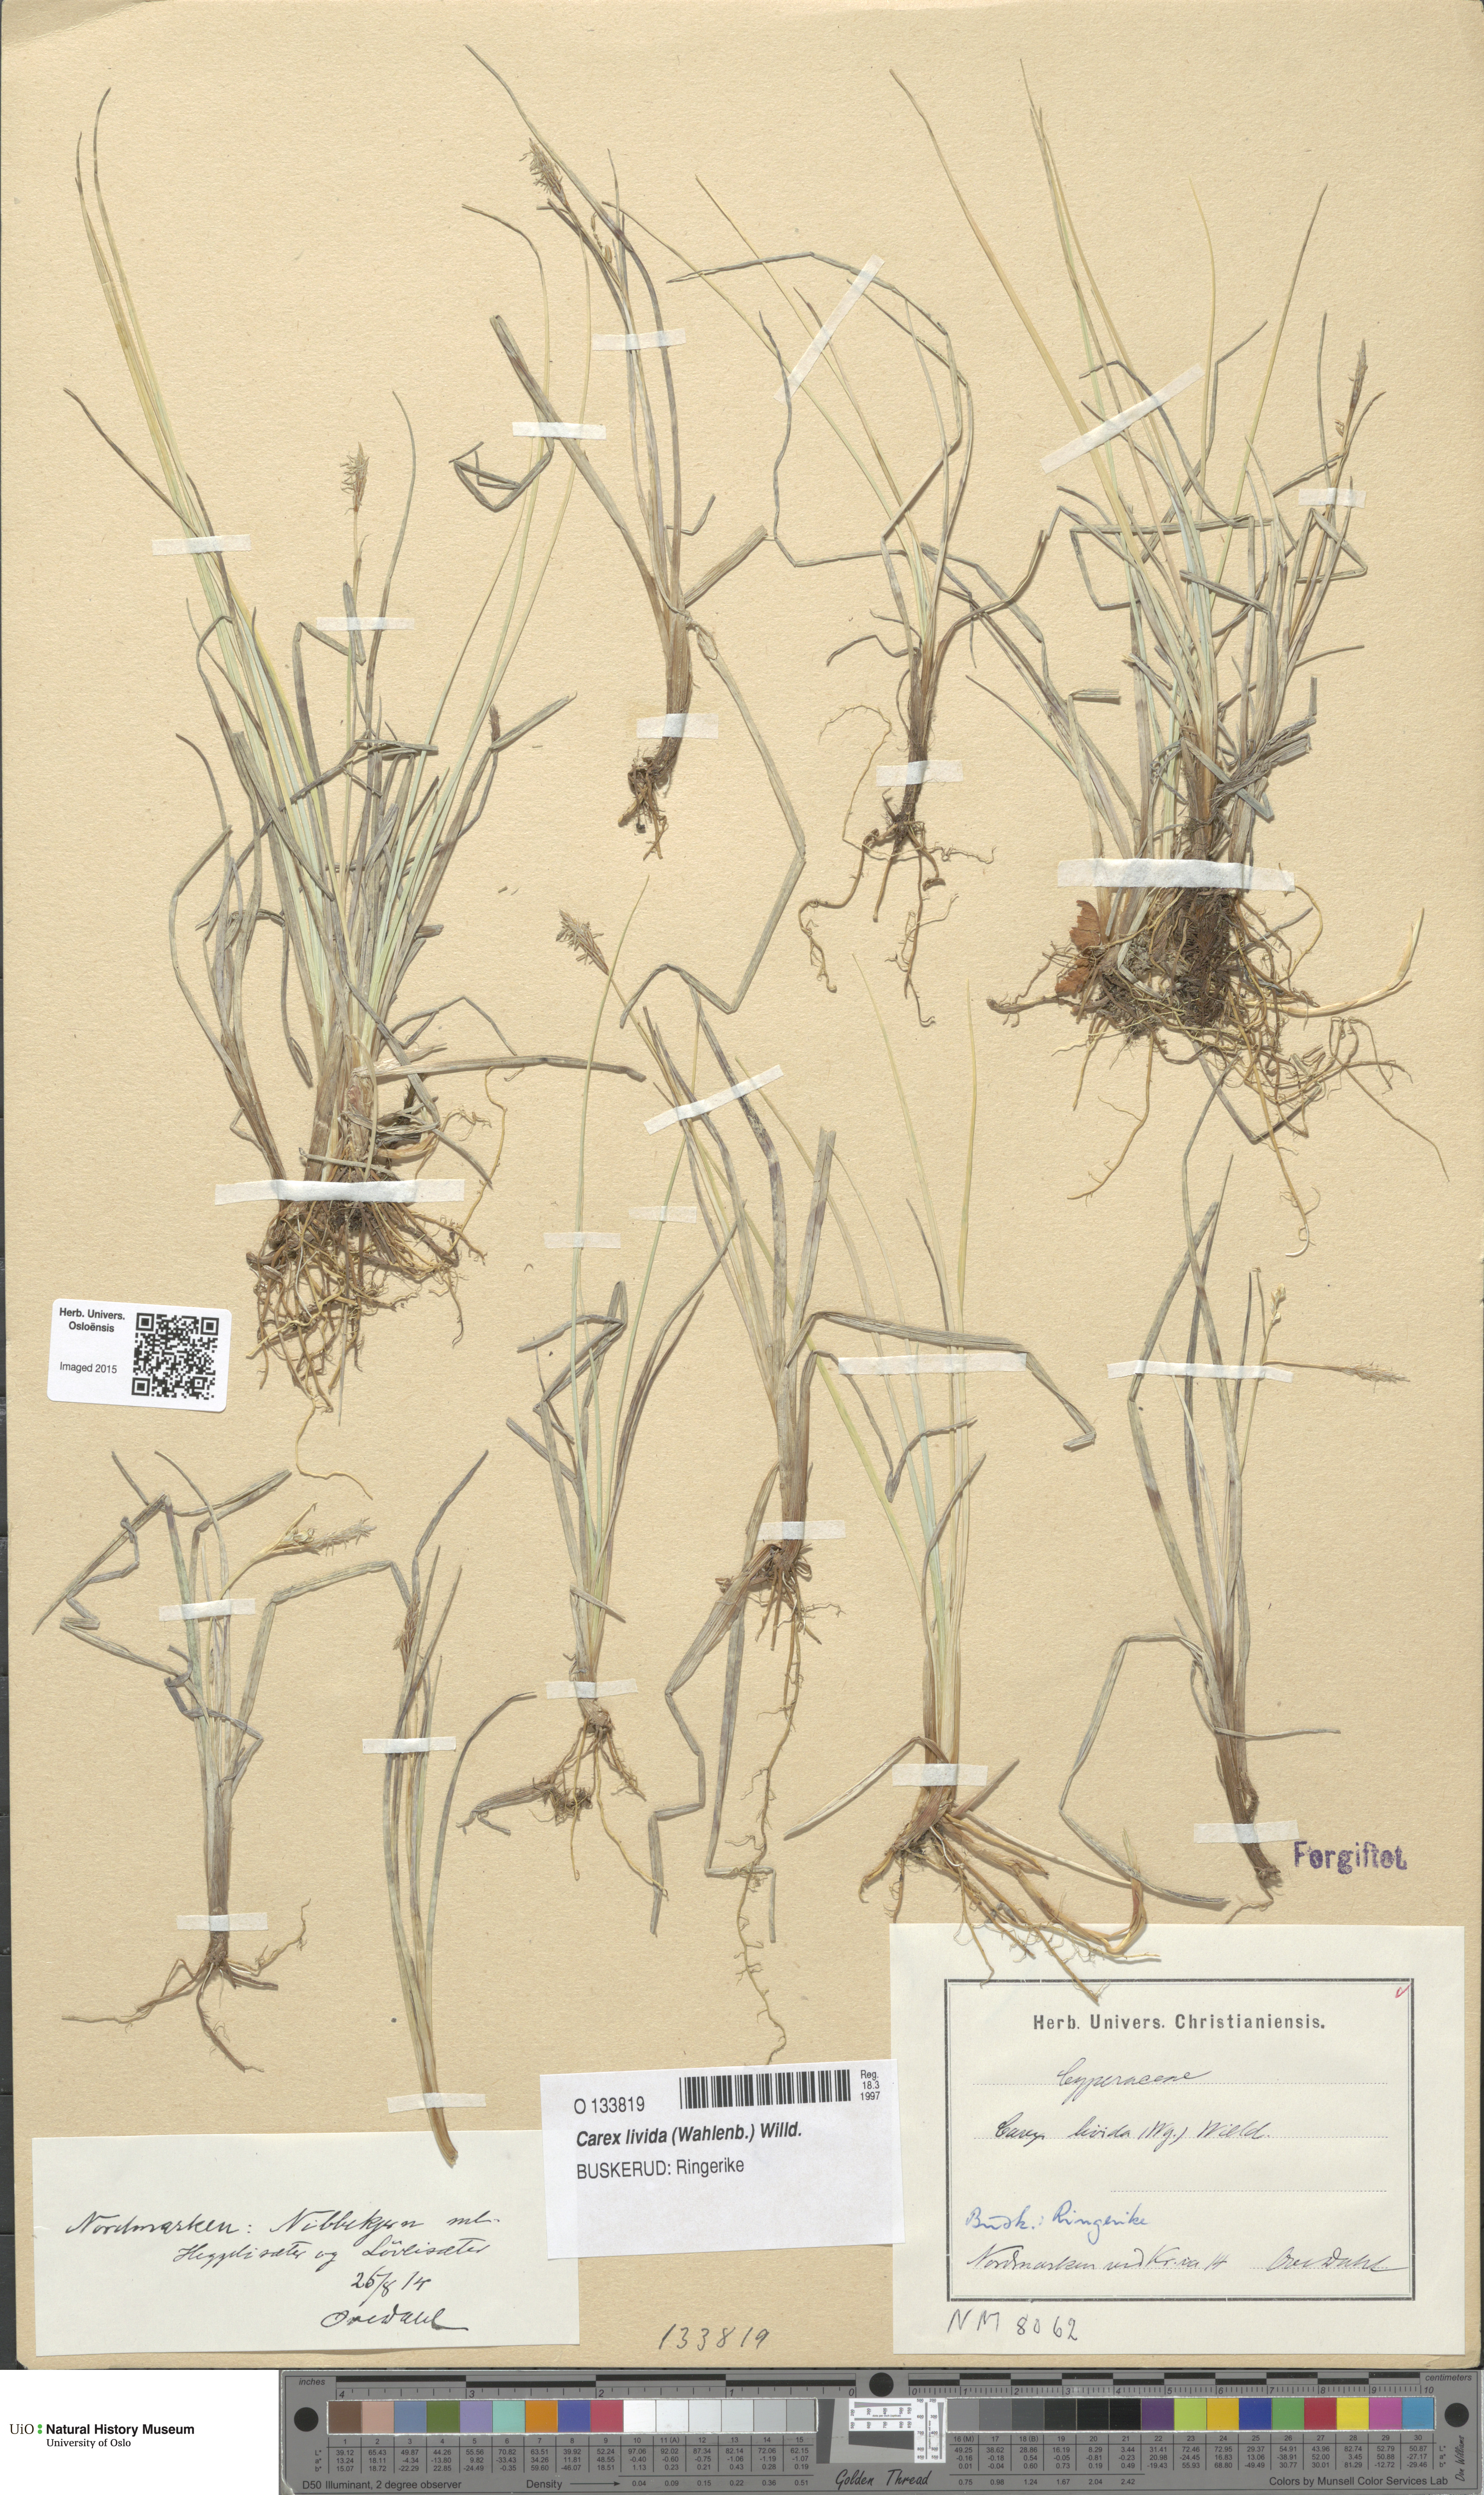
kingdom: Plantae
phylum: Tracheophyta
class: Liliopsida
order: Poales
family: Cyperaceae
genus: Carex
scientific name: Carex livida
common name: Livid sedge
